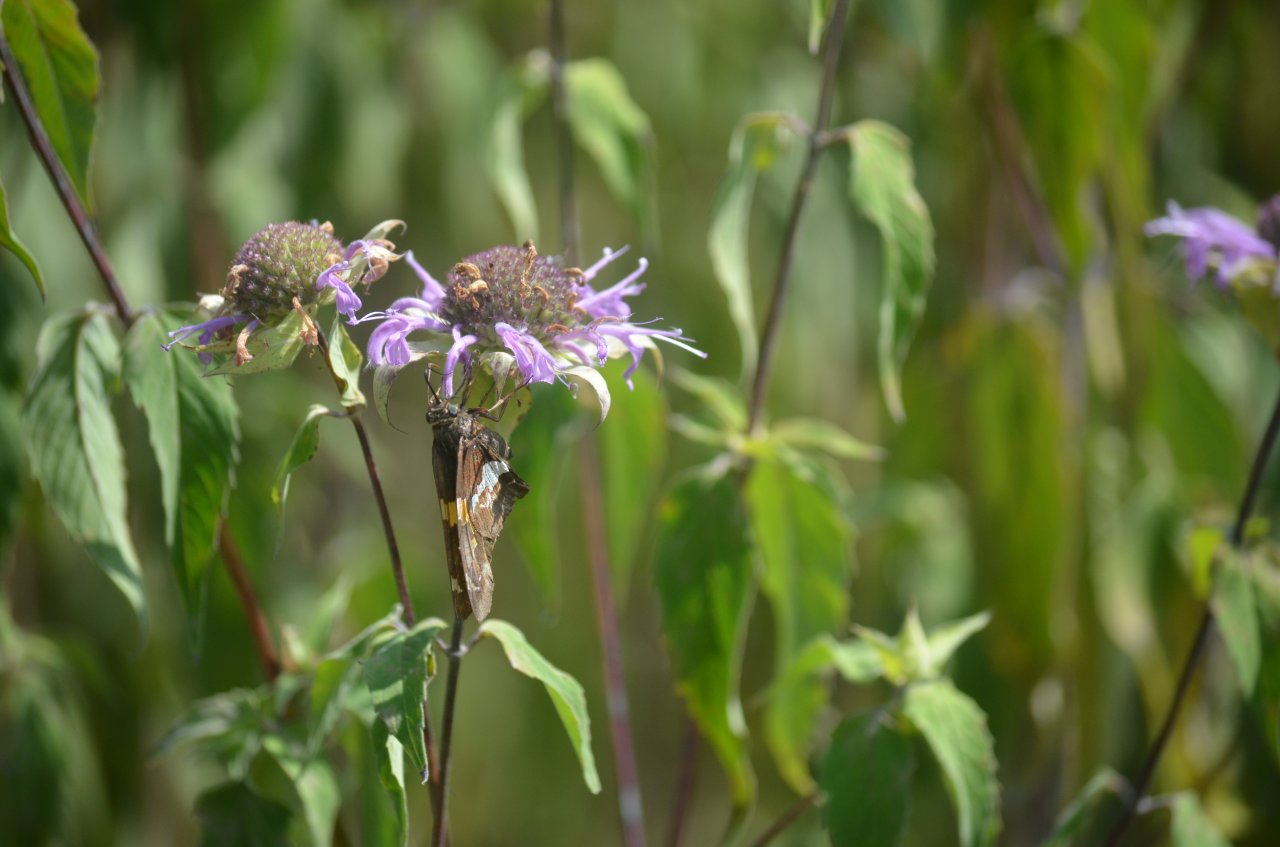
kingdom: Animalia
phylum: Arthropoda
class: Insecta
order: Lepidoptera
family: Hesperiidae
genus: Epargyreus
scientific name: Epargyreus clarus
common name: Silver-spotted Skipper
